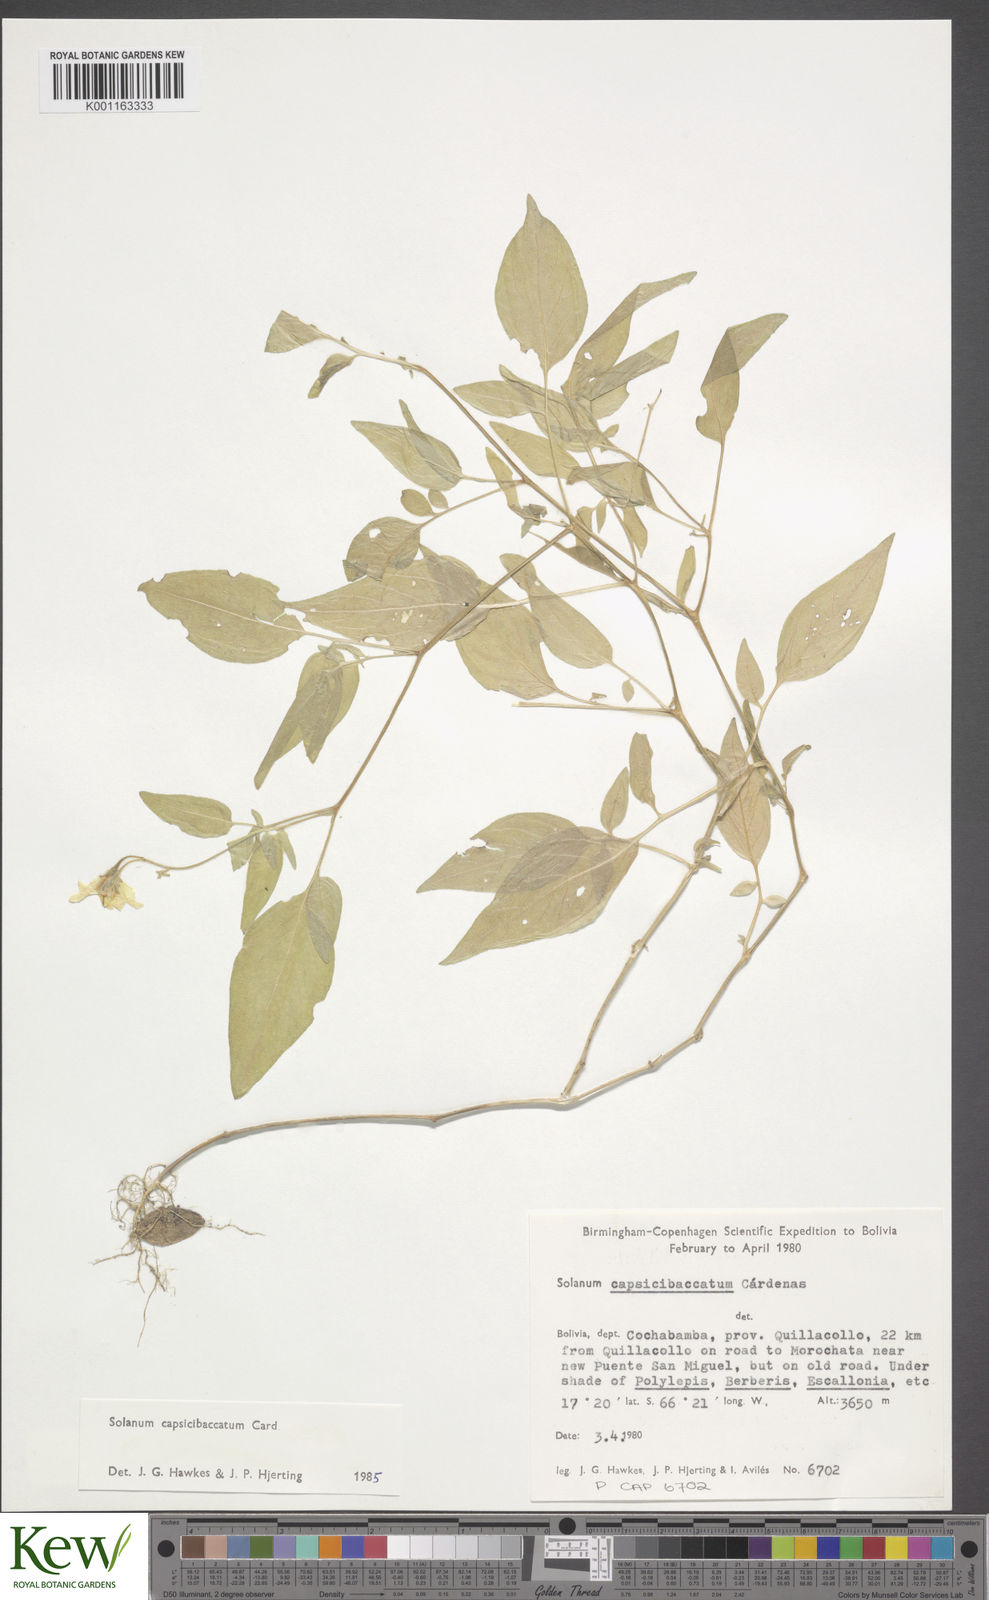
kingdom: Plantae
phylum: Tracheophyta
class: Magnoliopsida
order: Solanales
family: Solanaceae
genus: Solanum
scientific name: Solanum stipuloideum
